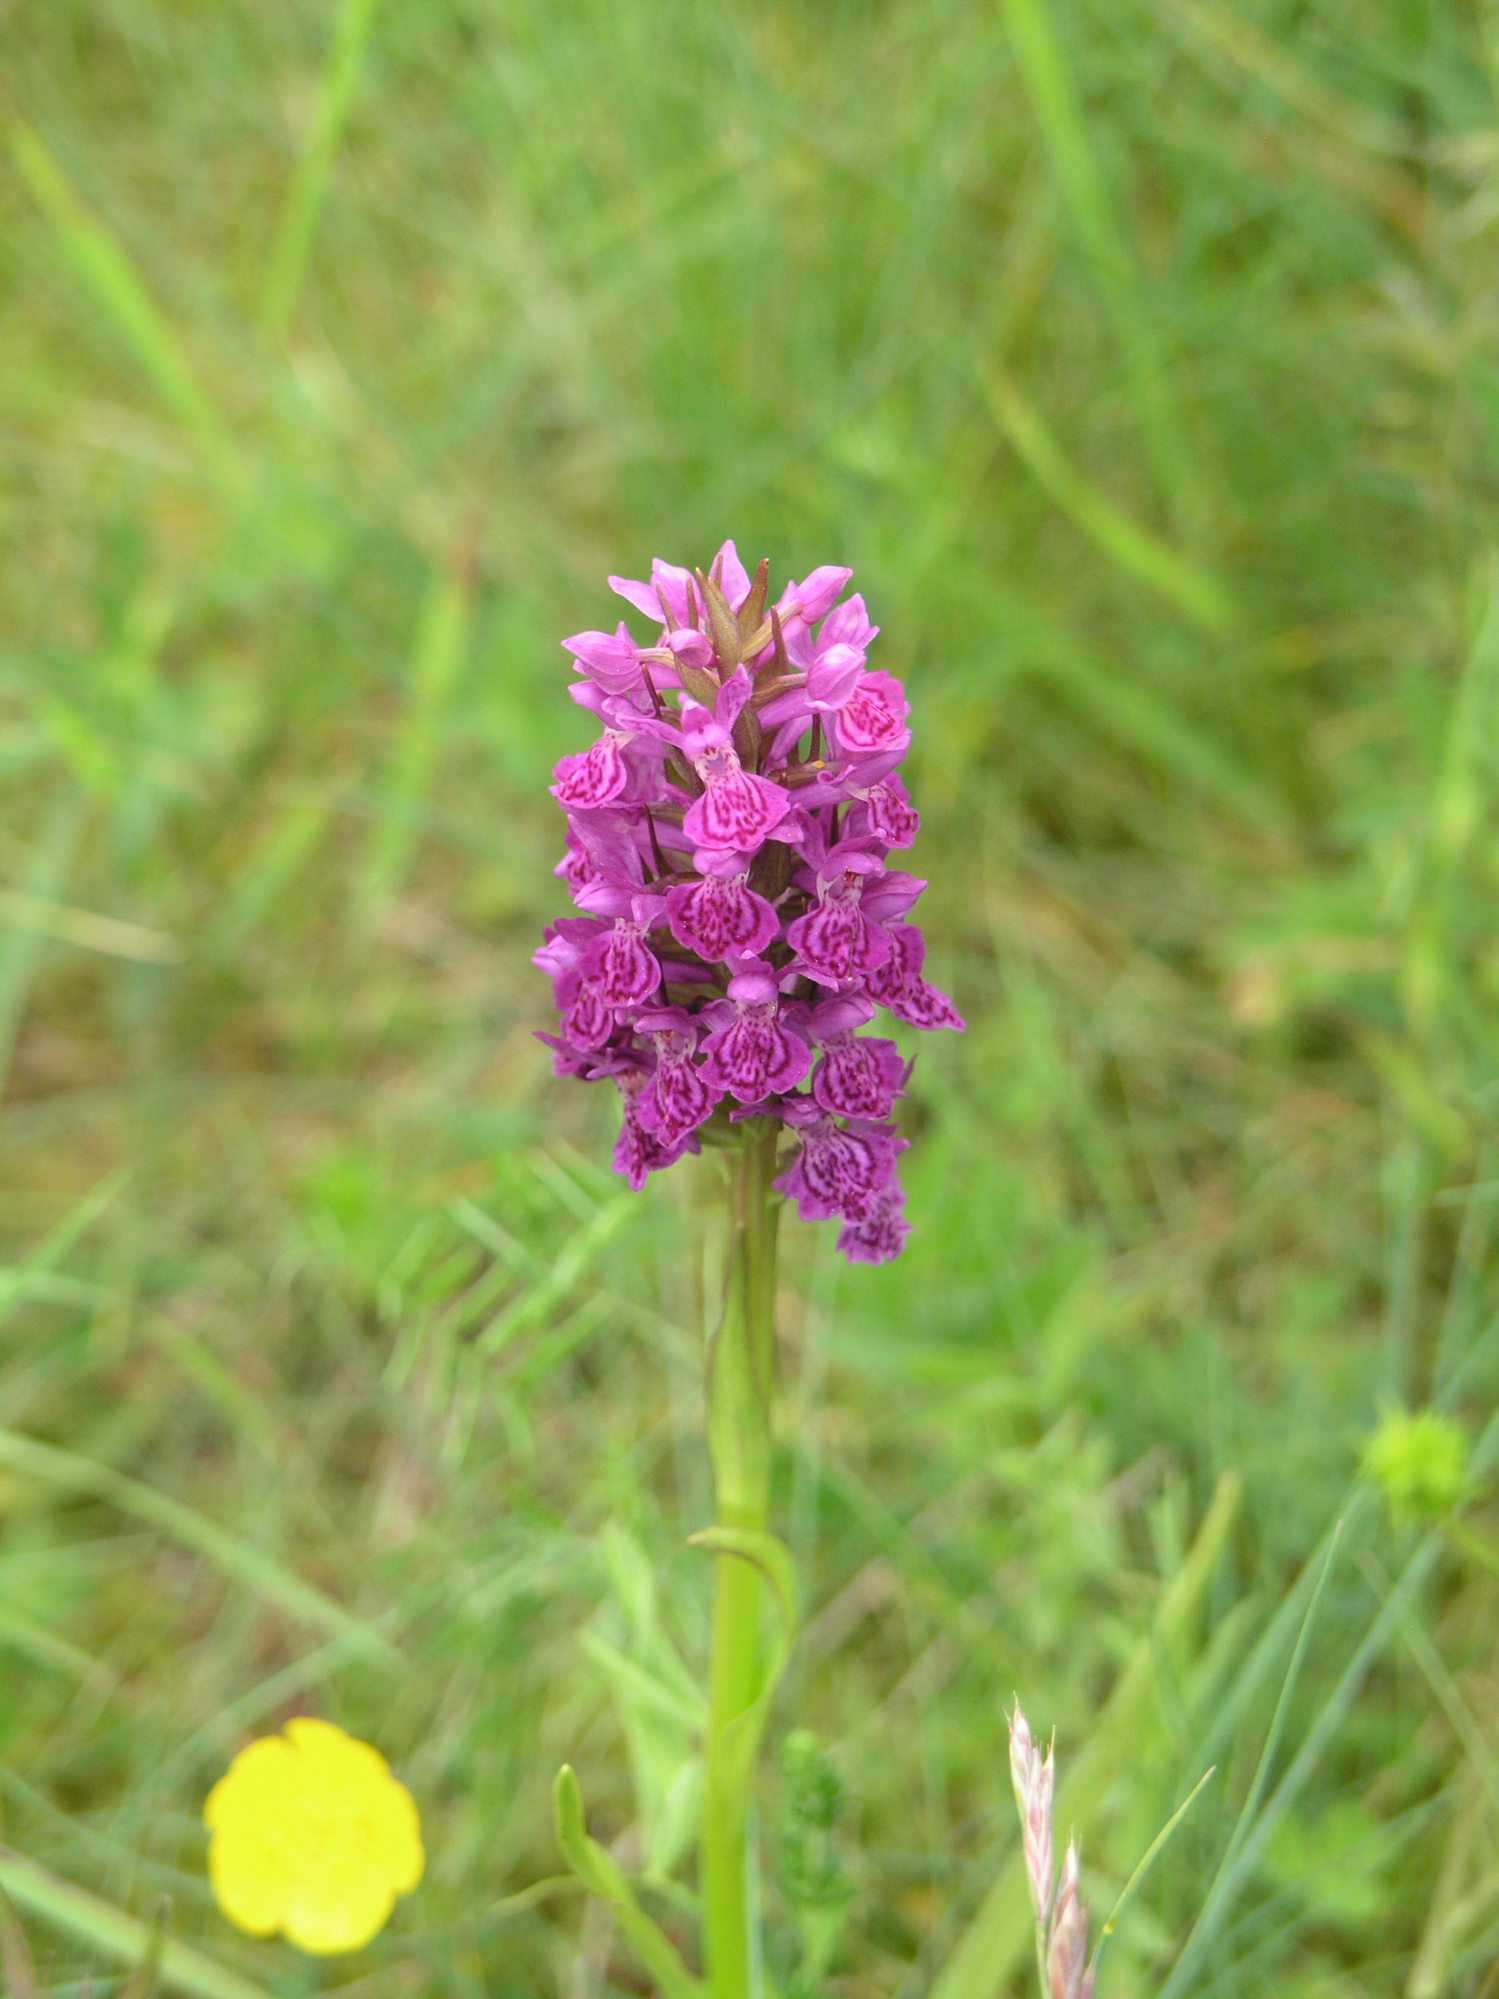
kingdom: Plantae
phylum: Tracheophyta
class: Liliopsida
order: Asparagales
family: Orchidaceae
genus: Dactylorhiza
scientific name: Dactylorhiza majalis
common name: Marsh orchid
